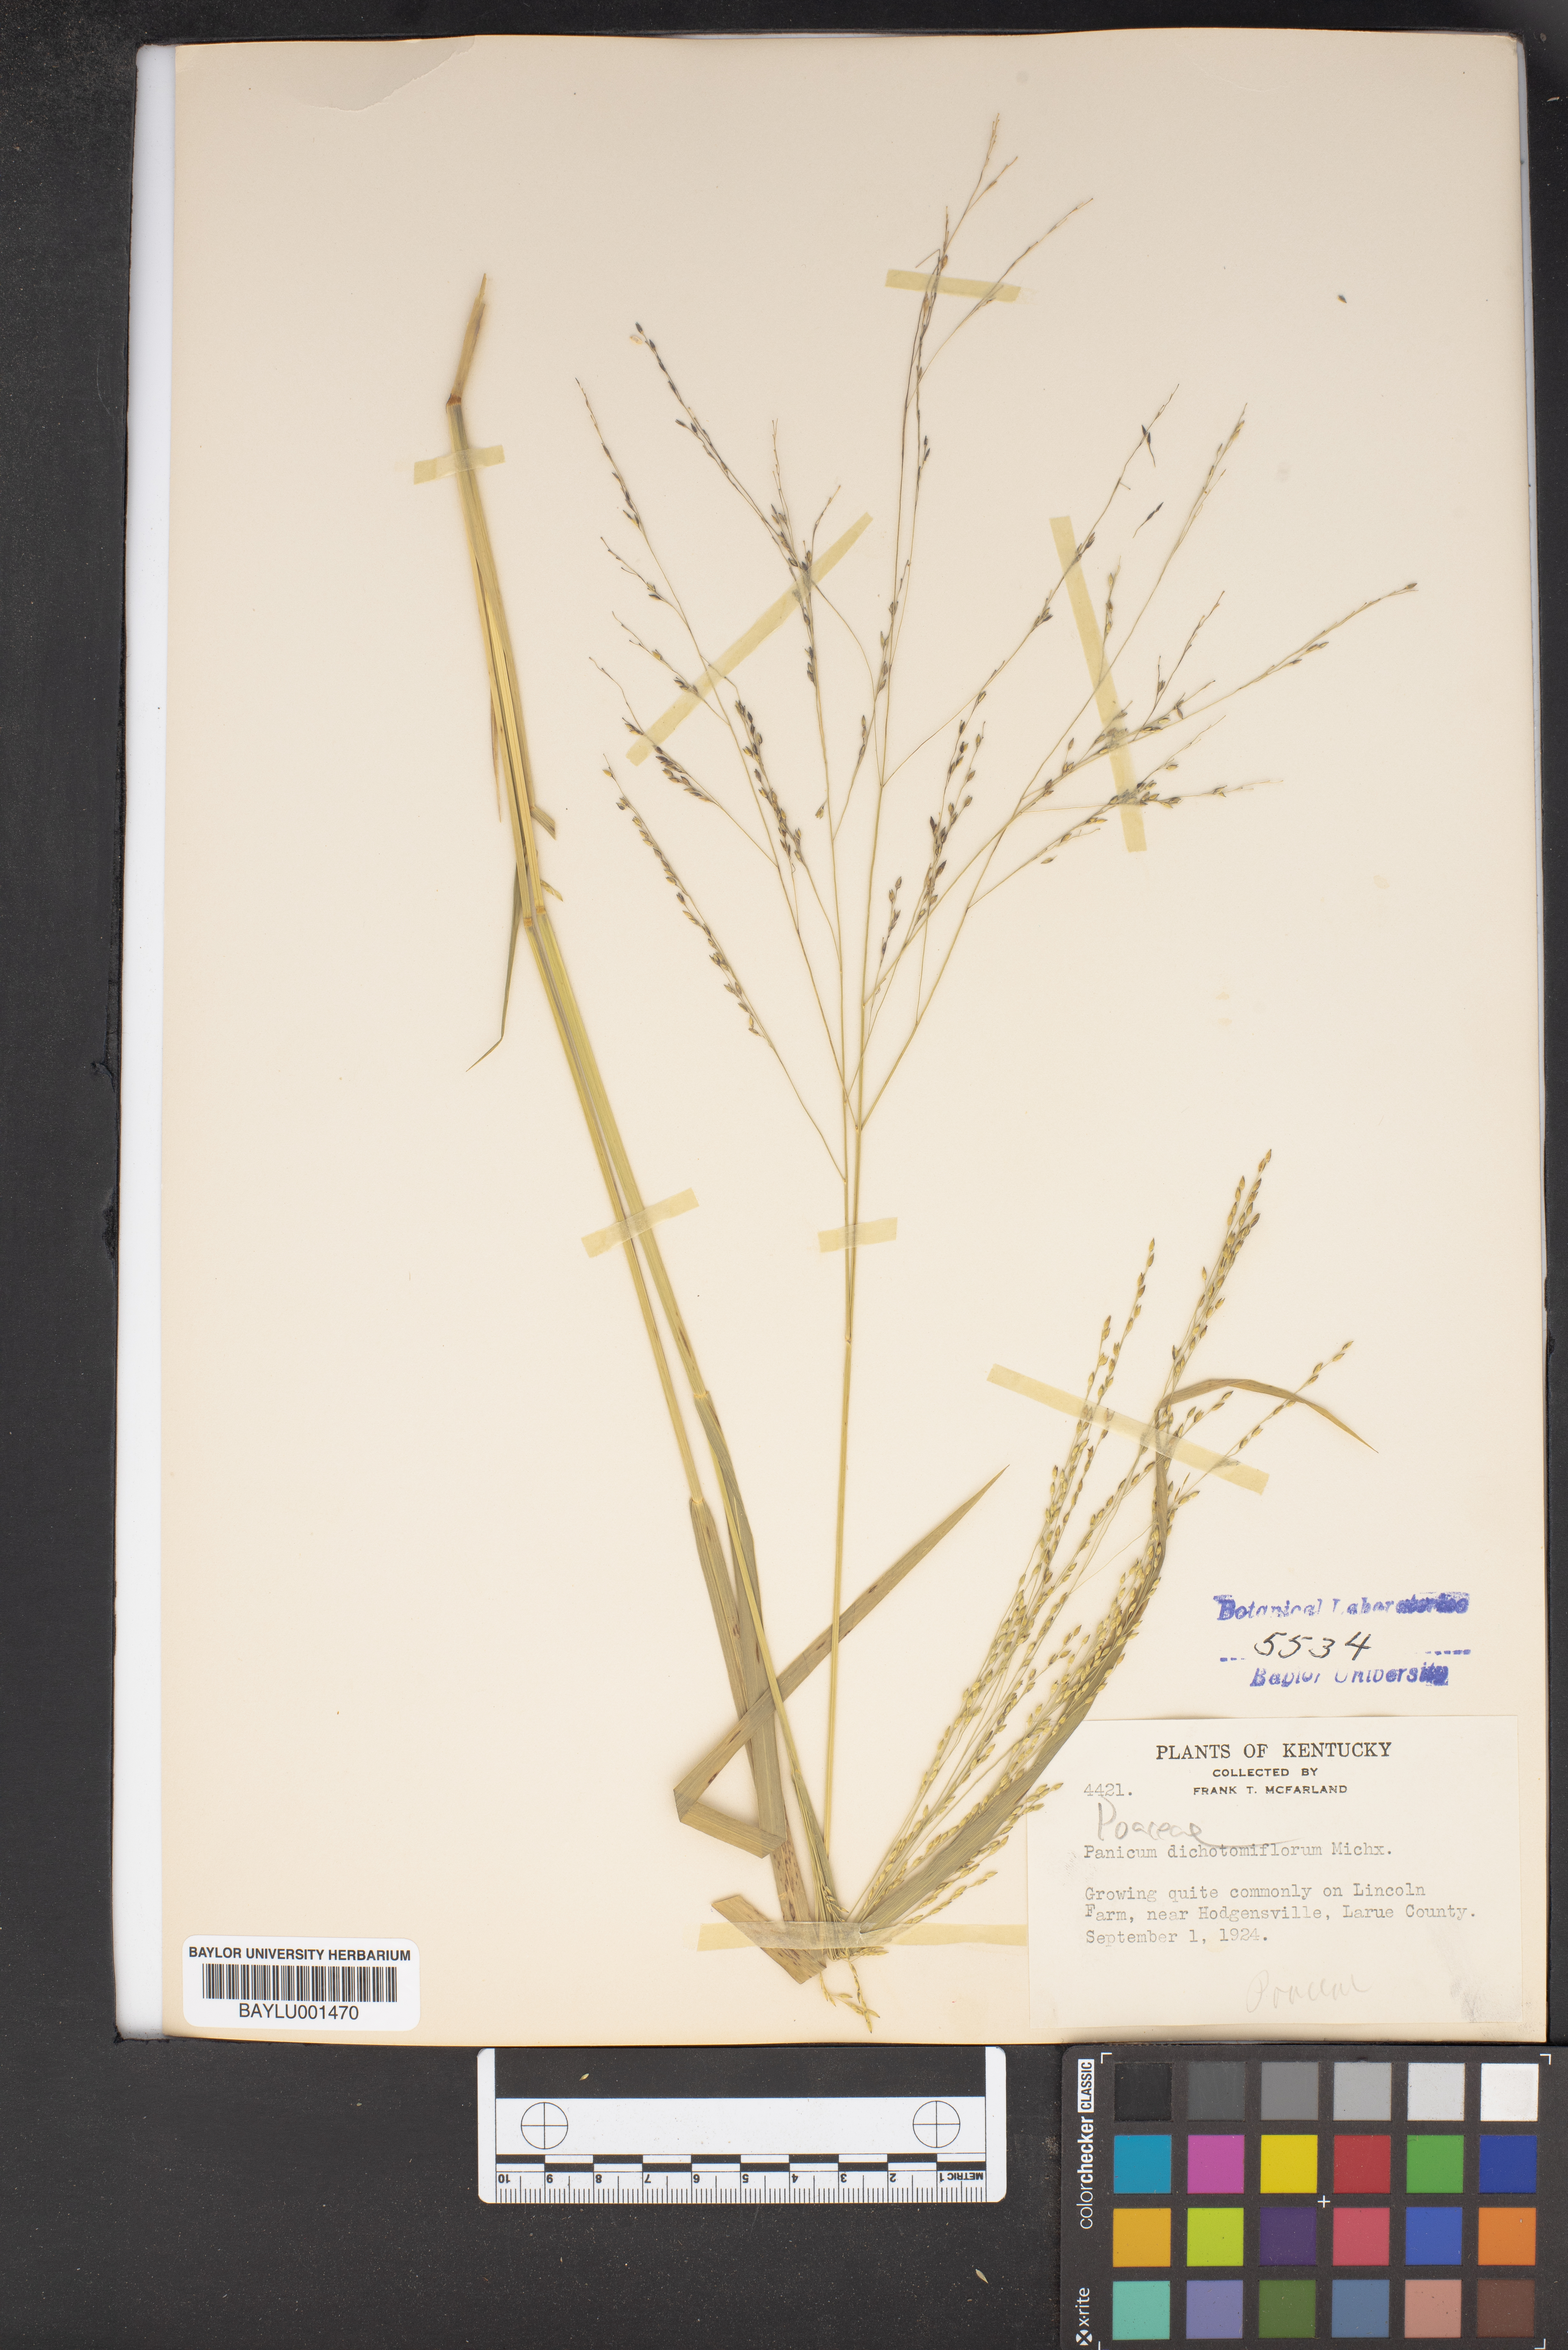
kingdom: Plantae
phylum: Tracheophyta
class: Liliopsida
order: Poales
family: Poaceae
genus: Panicum
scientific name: Panicum dichotomiflorum
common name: Autumn millet
